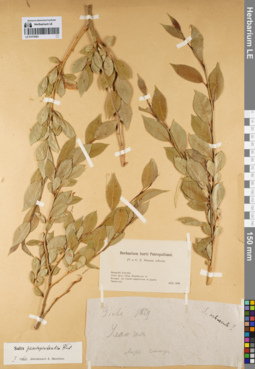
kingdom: Plantae
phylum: Tracheophyta
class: Magnoliopsida
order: Malpighiales
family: Salicaceae
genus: Salix
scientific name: Salix pseudopentandra
